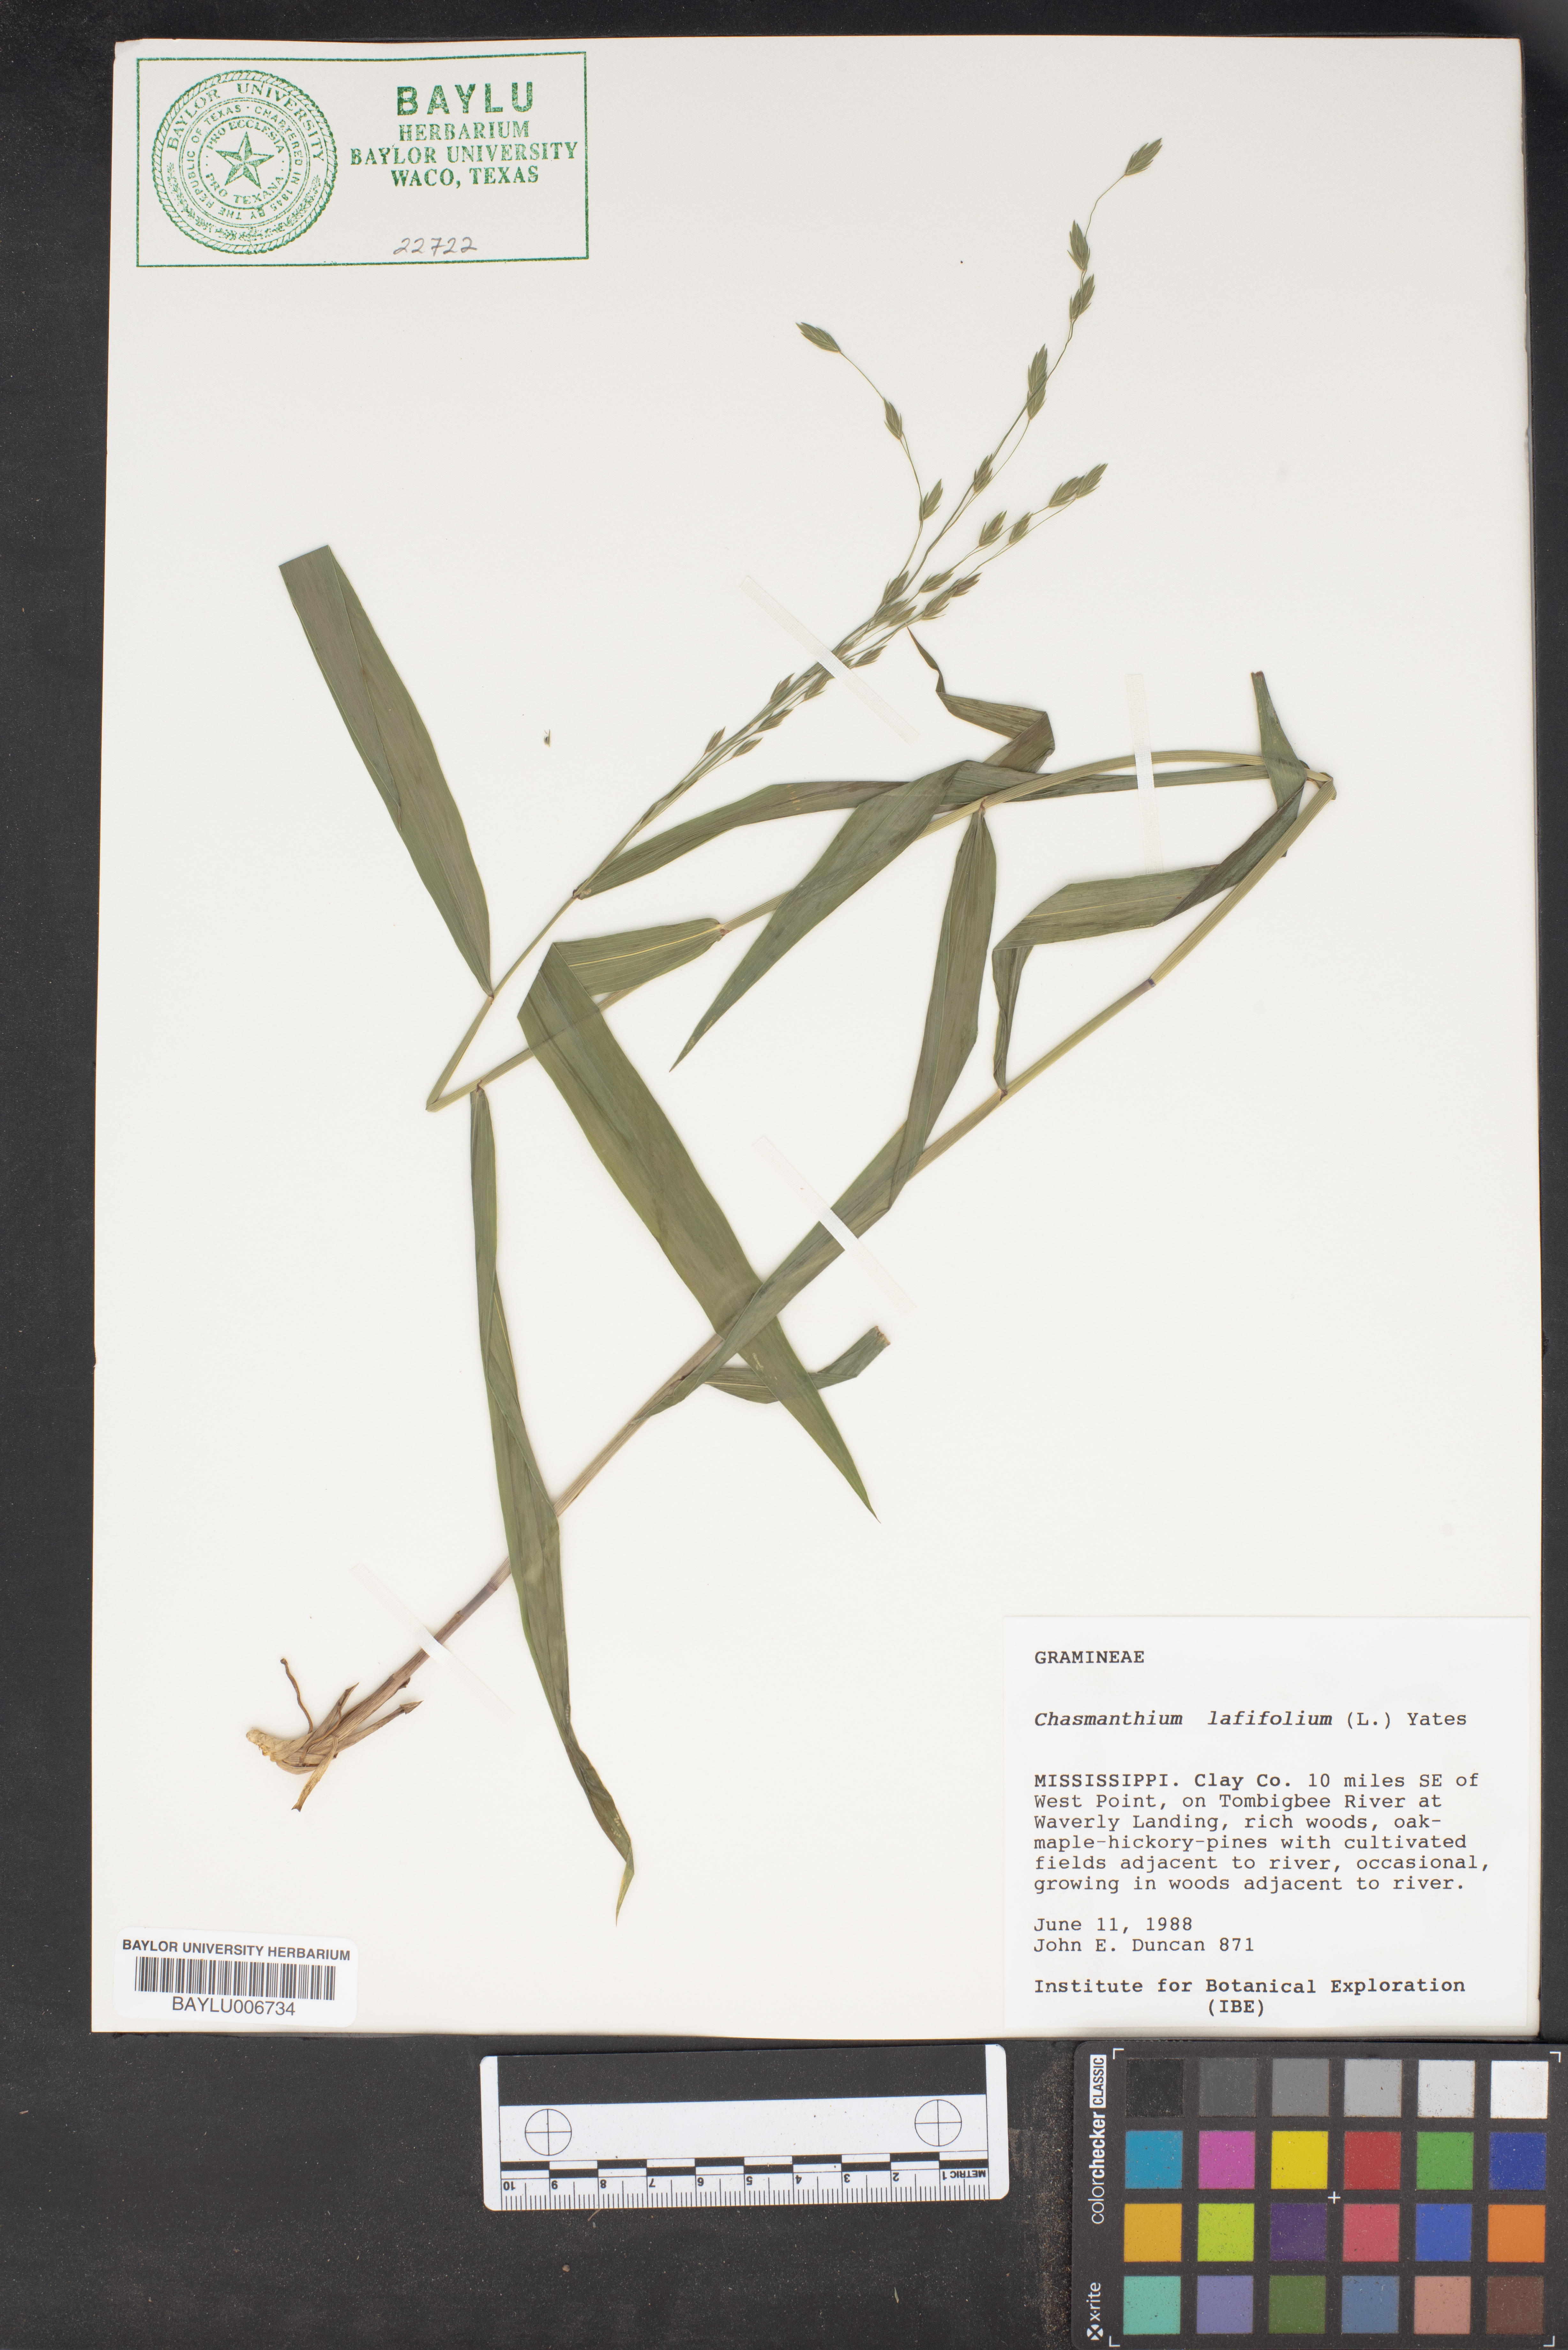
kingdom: Plantae
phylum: Tracheophyta
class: Liliopsida
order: Poales
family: Poaceae
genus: Chasmanthium
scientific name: Chasmanthium latifolium
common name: Broad-leaved chasmanthium
